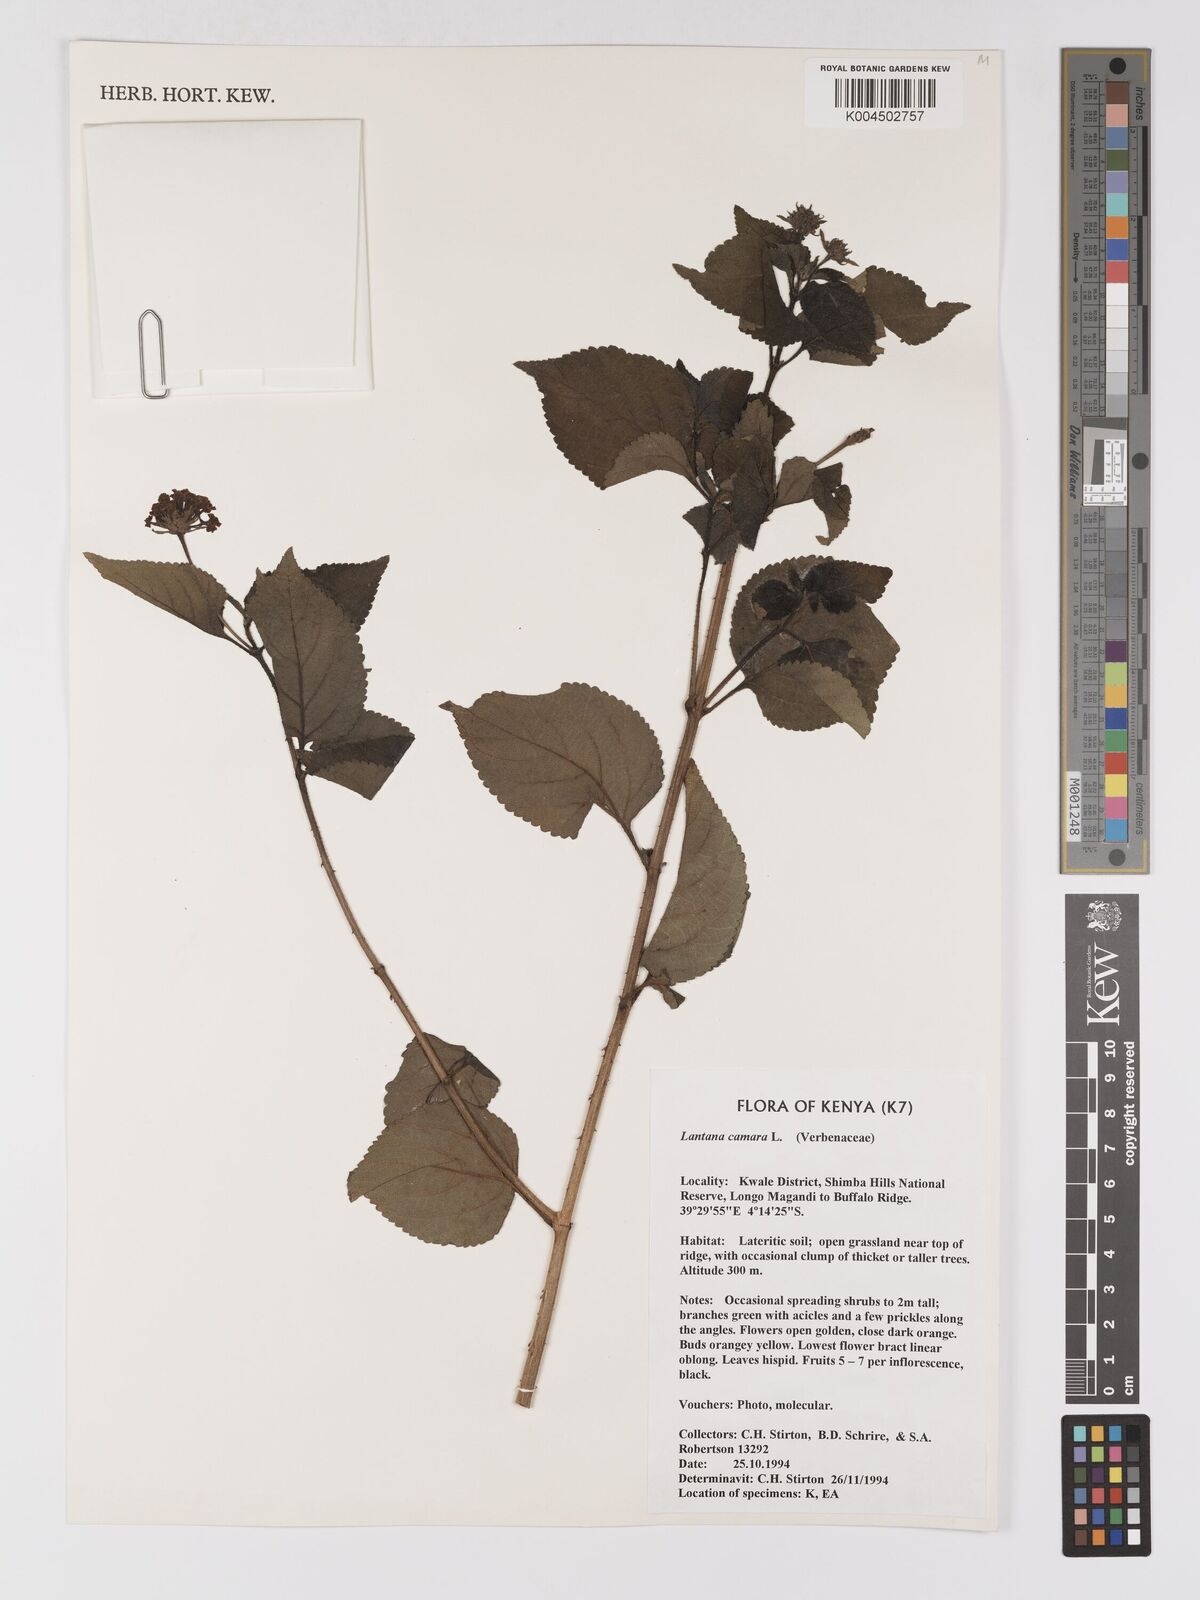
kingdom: Plantae
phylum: Tracheophyta
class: Magnoliopsida
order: Lamiales
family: Verbenaceae
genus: Lantana
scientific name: Lantana camara
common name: Lantana
